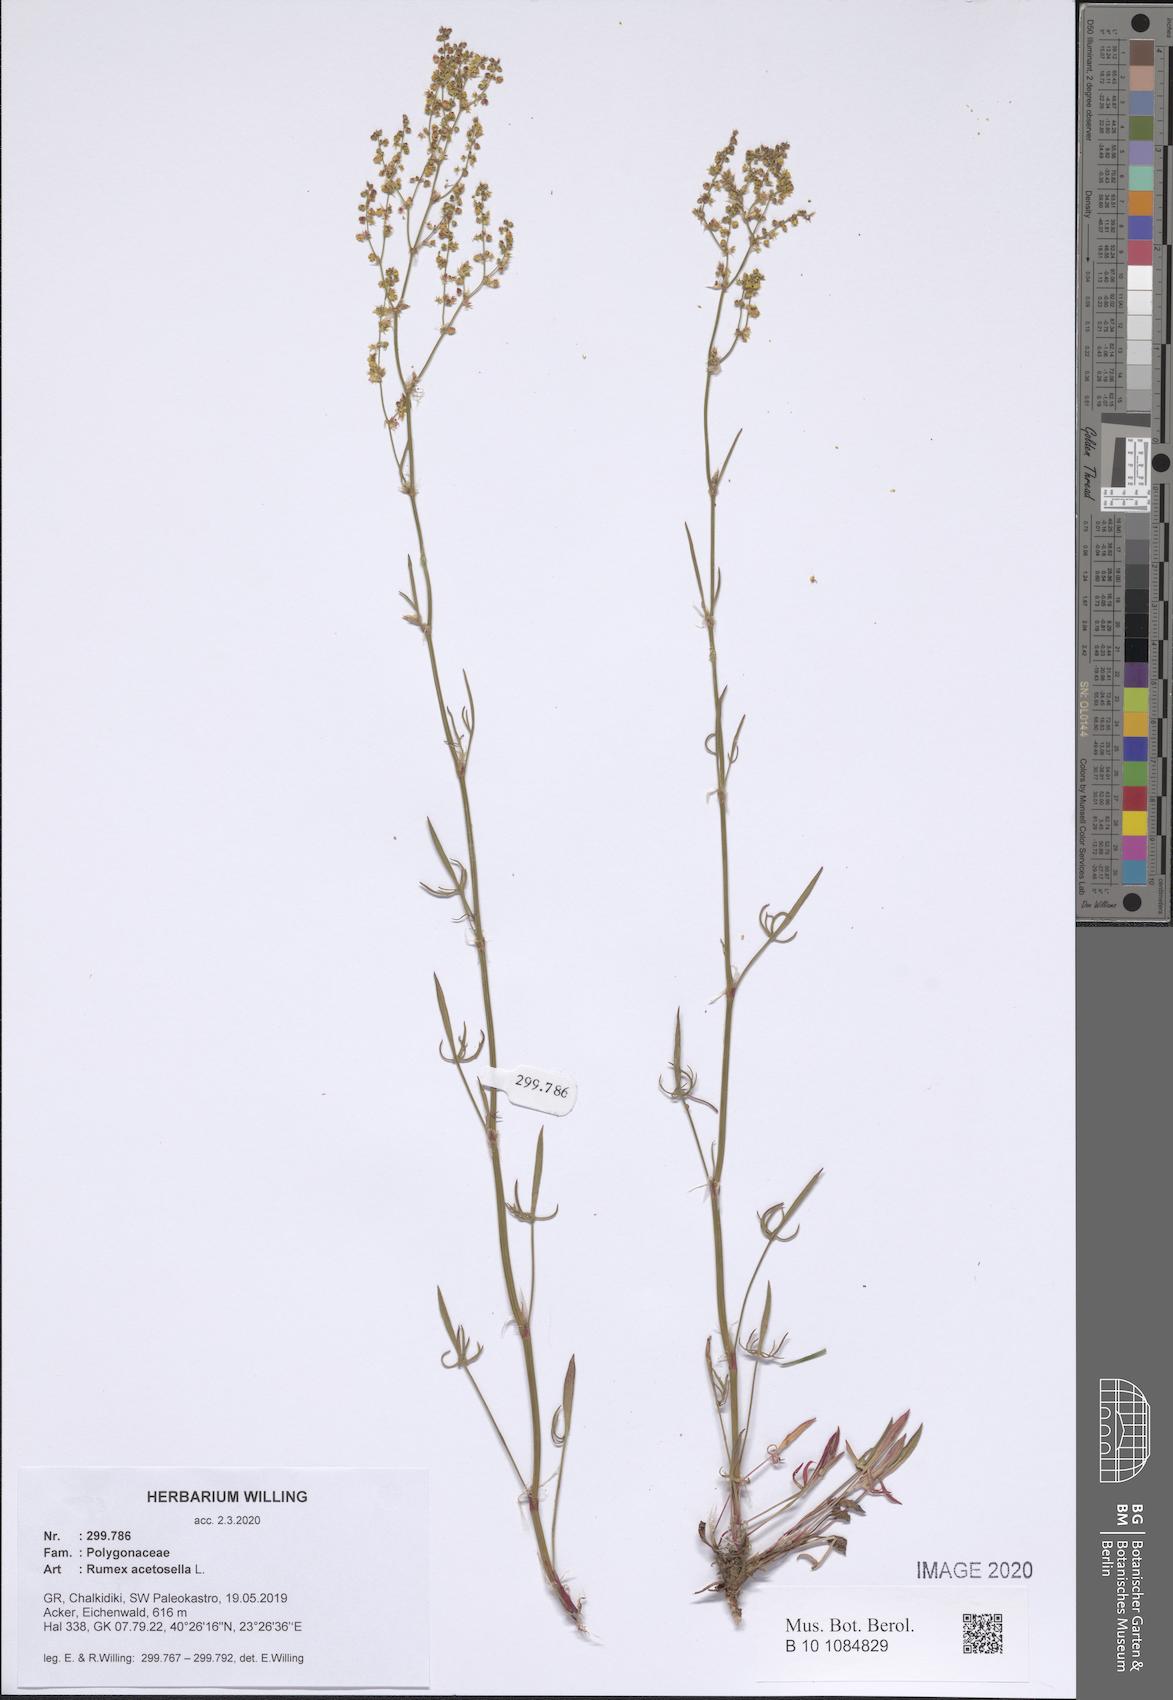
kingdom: Plantae
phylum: Tracheophyta
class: Magnoliopsida
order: Caryophyllales
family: Polygonaceae
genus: Rumex
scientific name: Rumex acetosella
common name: Common sheep sorrel
